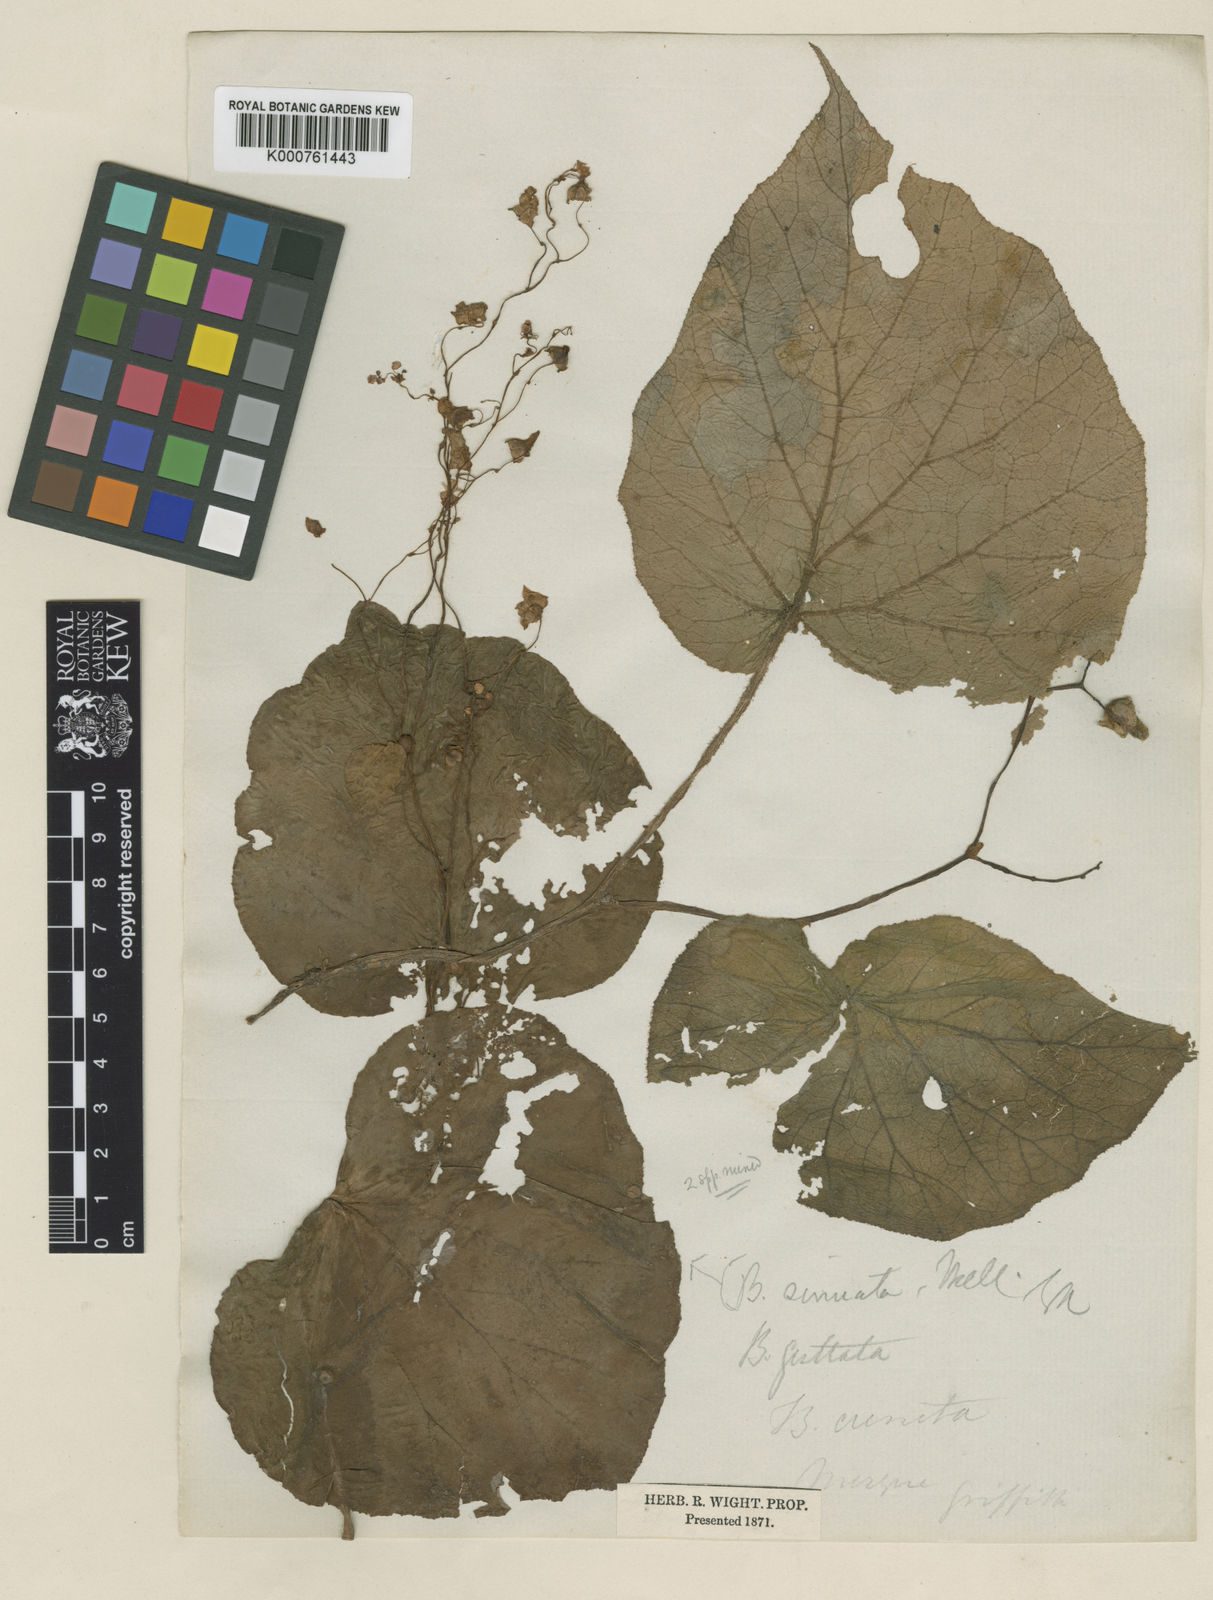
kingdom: Plantae
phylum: Tracheophyta
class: Magnoliopsida
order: Cucurbitales
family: Begoniaceae
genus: Begonia
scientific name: Begonia
